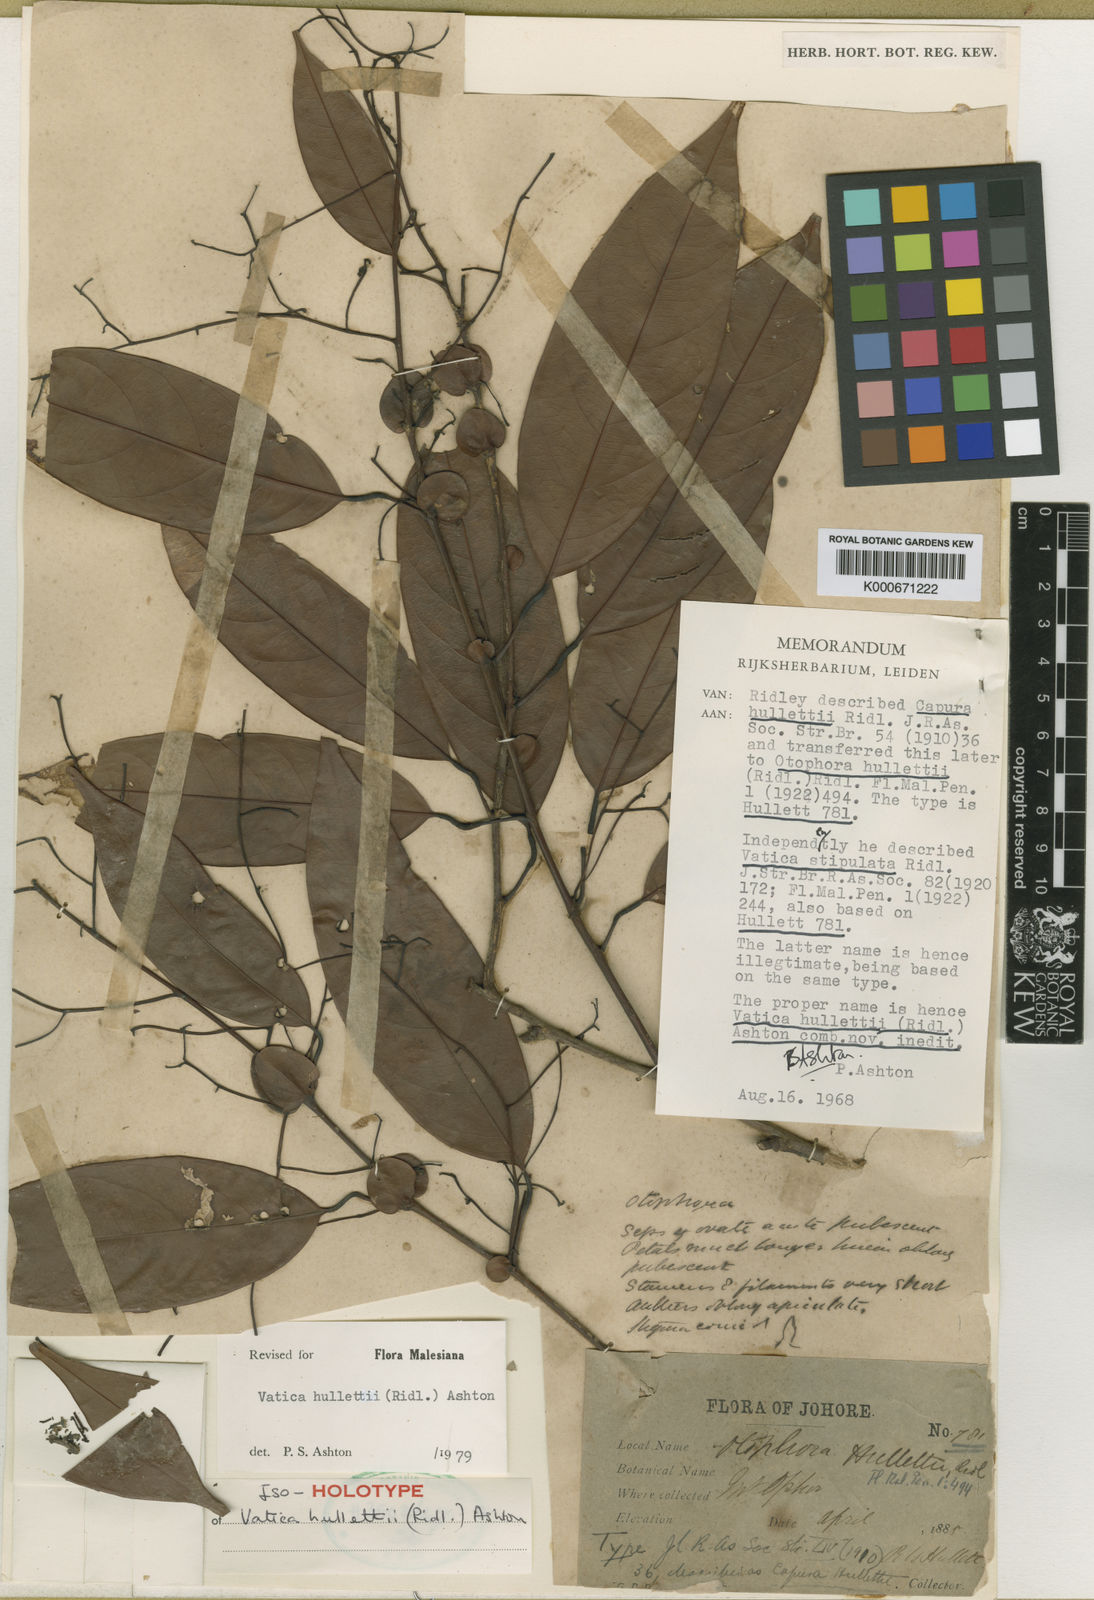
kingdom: Plantae
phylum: Tracheophyta
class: Magnoliopsida
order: Malvales
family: Dipterocarpaceae
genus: Vatica
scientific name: Vatica hullettii
